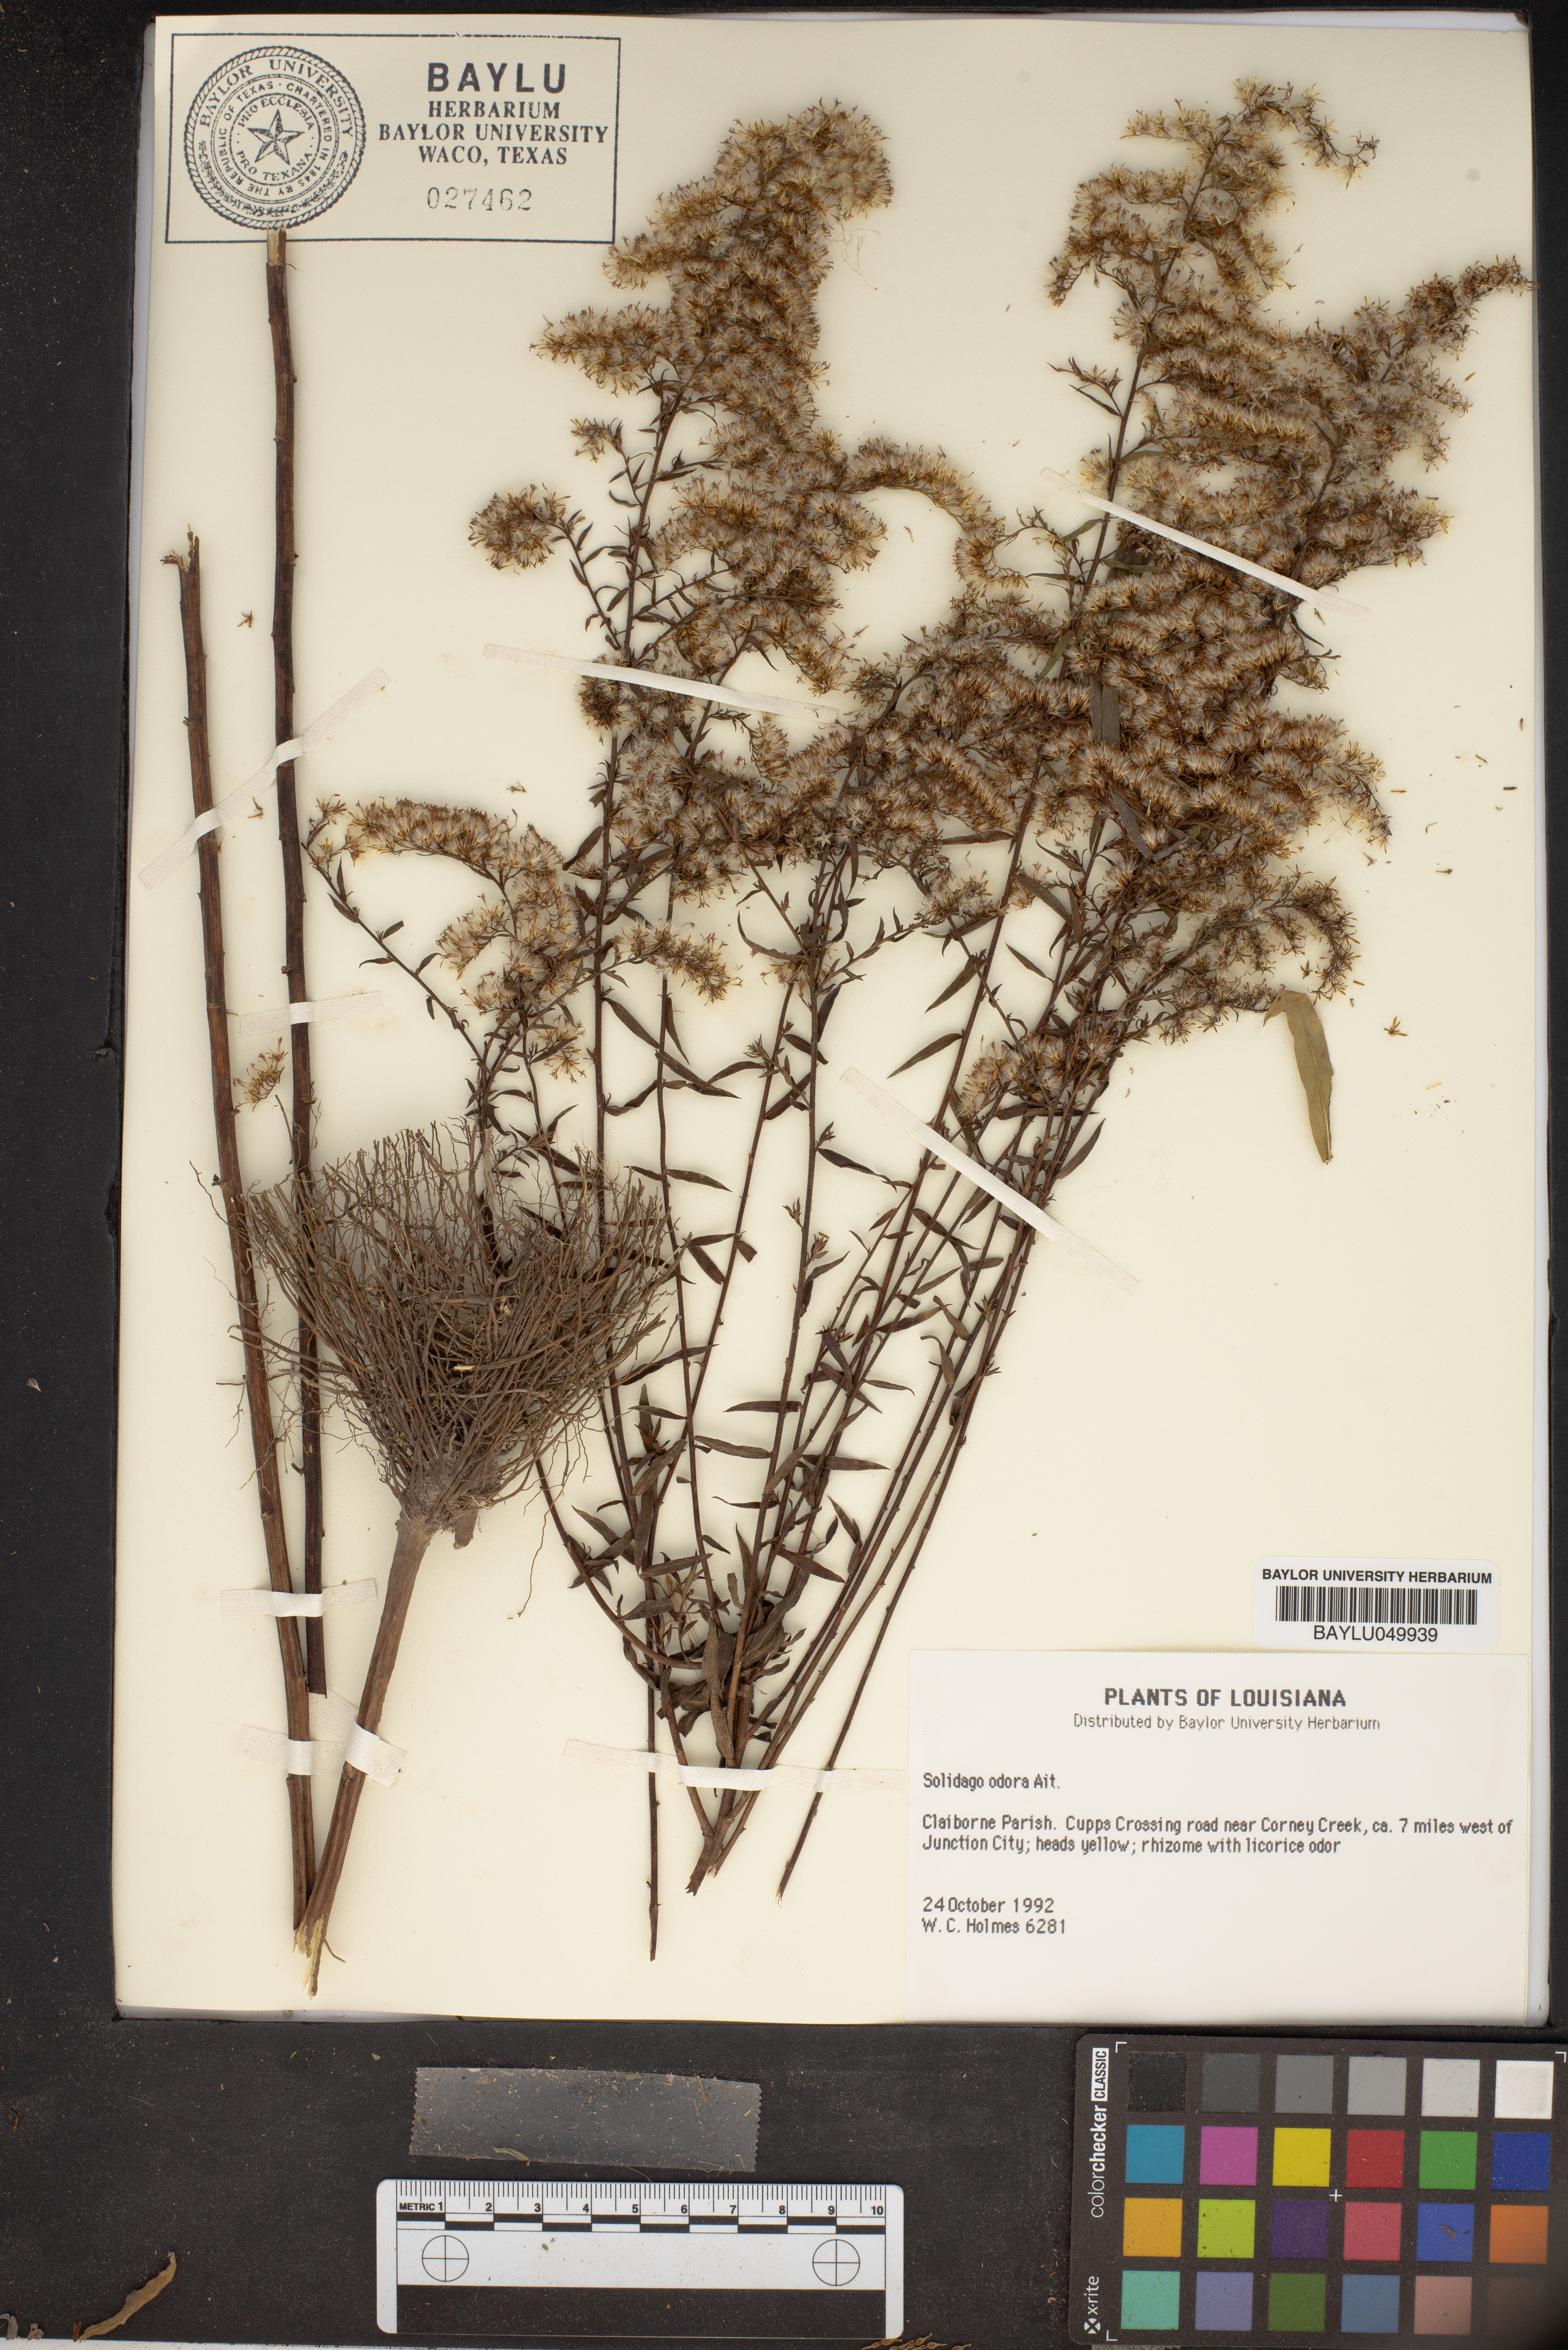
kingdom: Plantae
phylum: Tracheophyta
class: Magnoliopsida
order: Asterales
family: Asteraceae
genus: Solidago
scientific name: Solidago odora
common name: Anise-scented goldenrod
